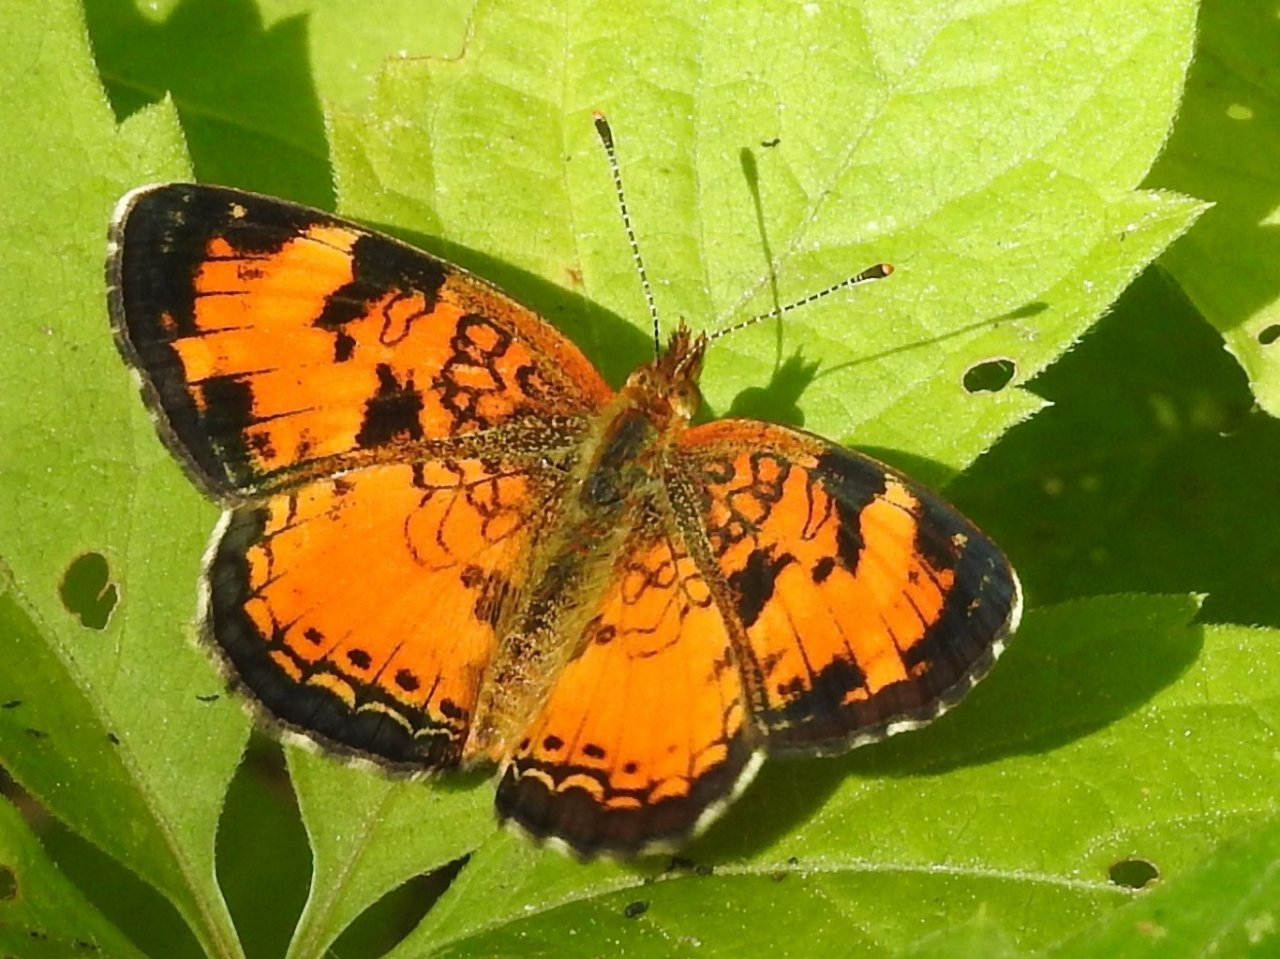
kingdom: Animalia
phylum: Arthropoda
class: Insecta
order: Lepidoptera
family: Nymphalidae
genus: Phyciodes
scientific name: Phyciodes tharos
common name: Northern Crescent
